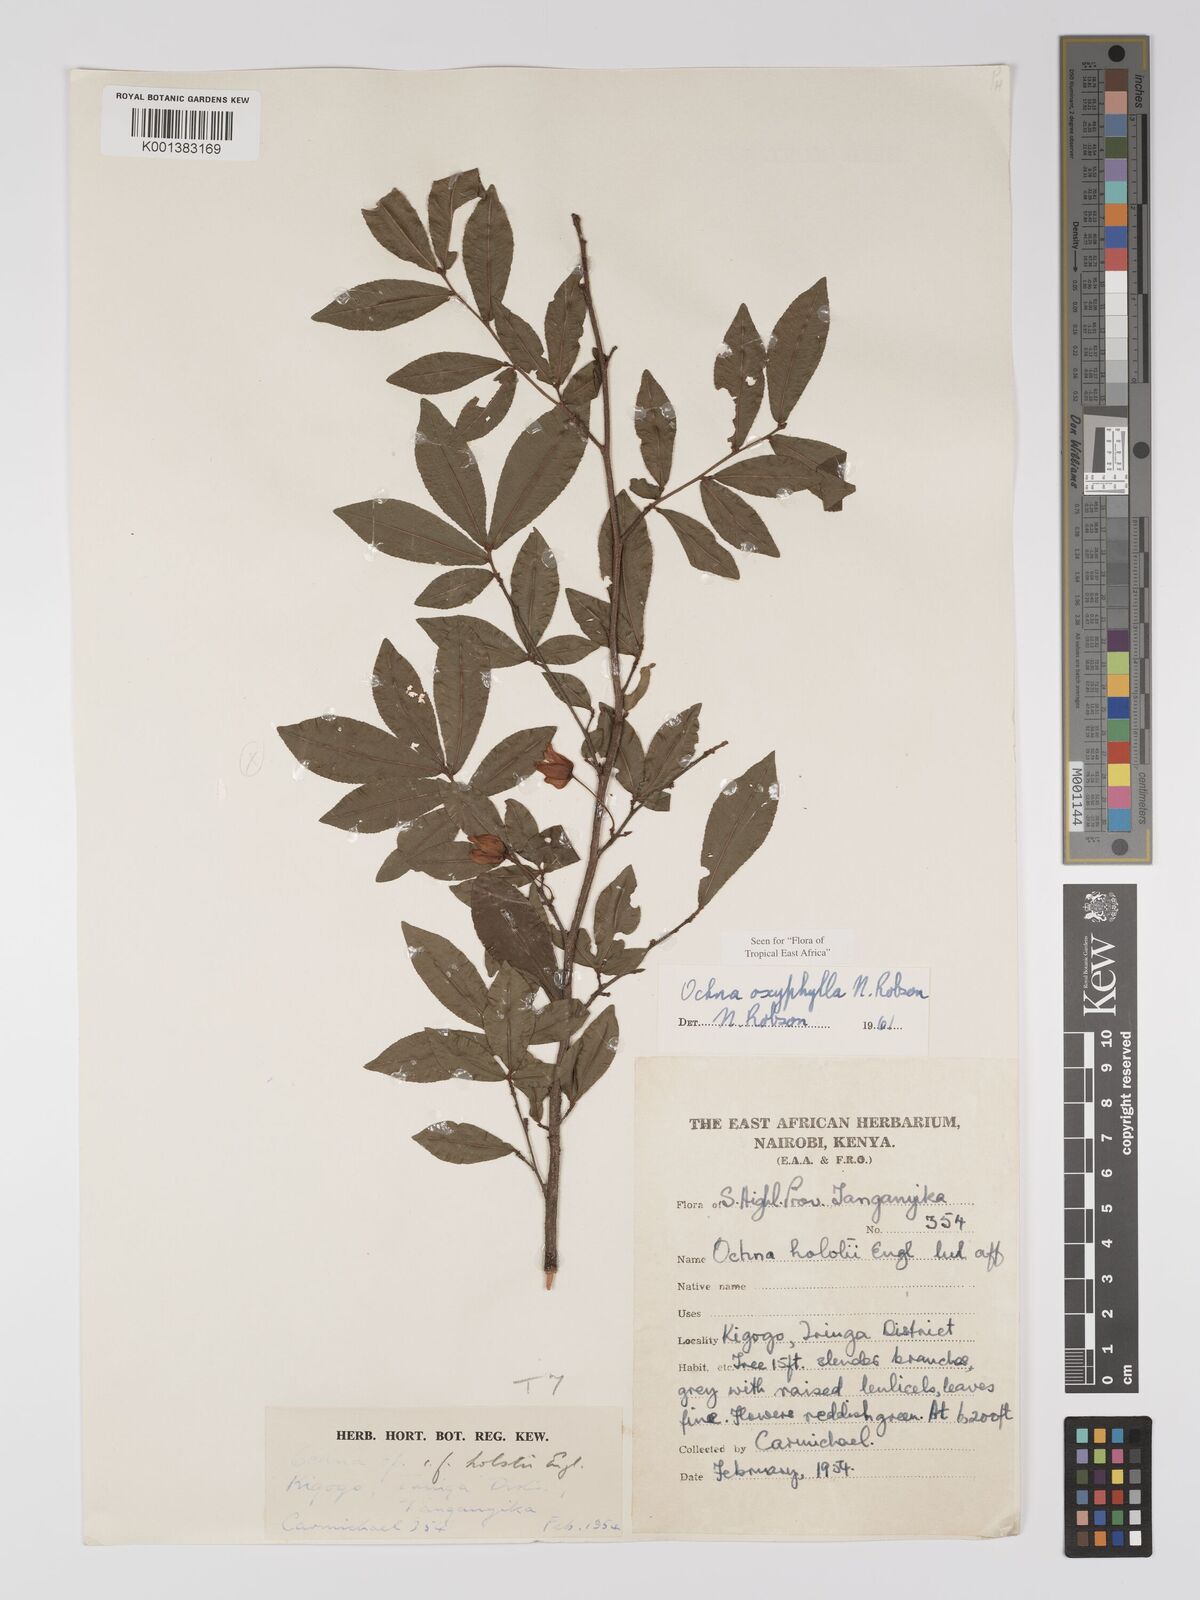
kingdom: Plantae
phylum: Tracheophyta
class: Magnoliopsida
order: Malpighiales
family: Ochnaceae
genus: Ochna
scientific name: Ochna oxyphylla
